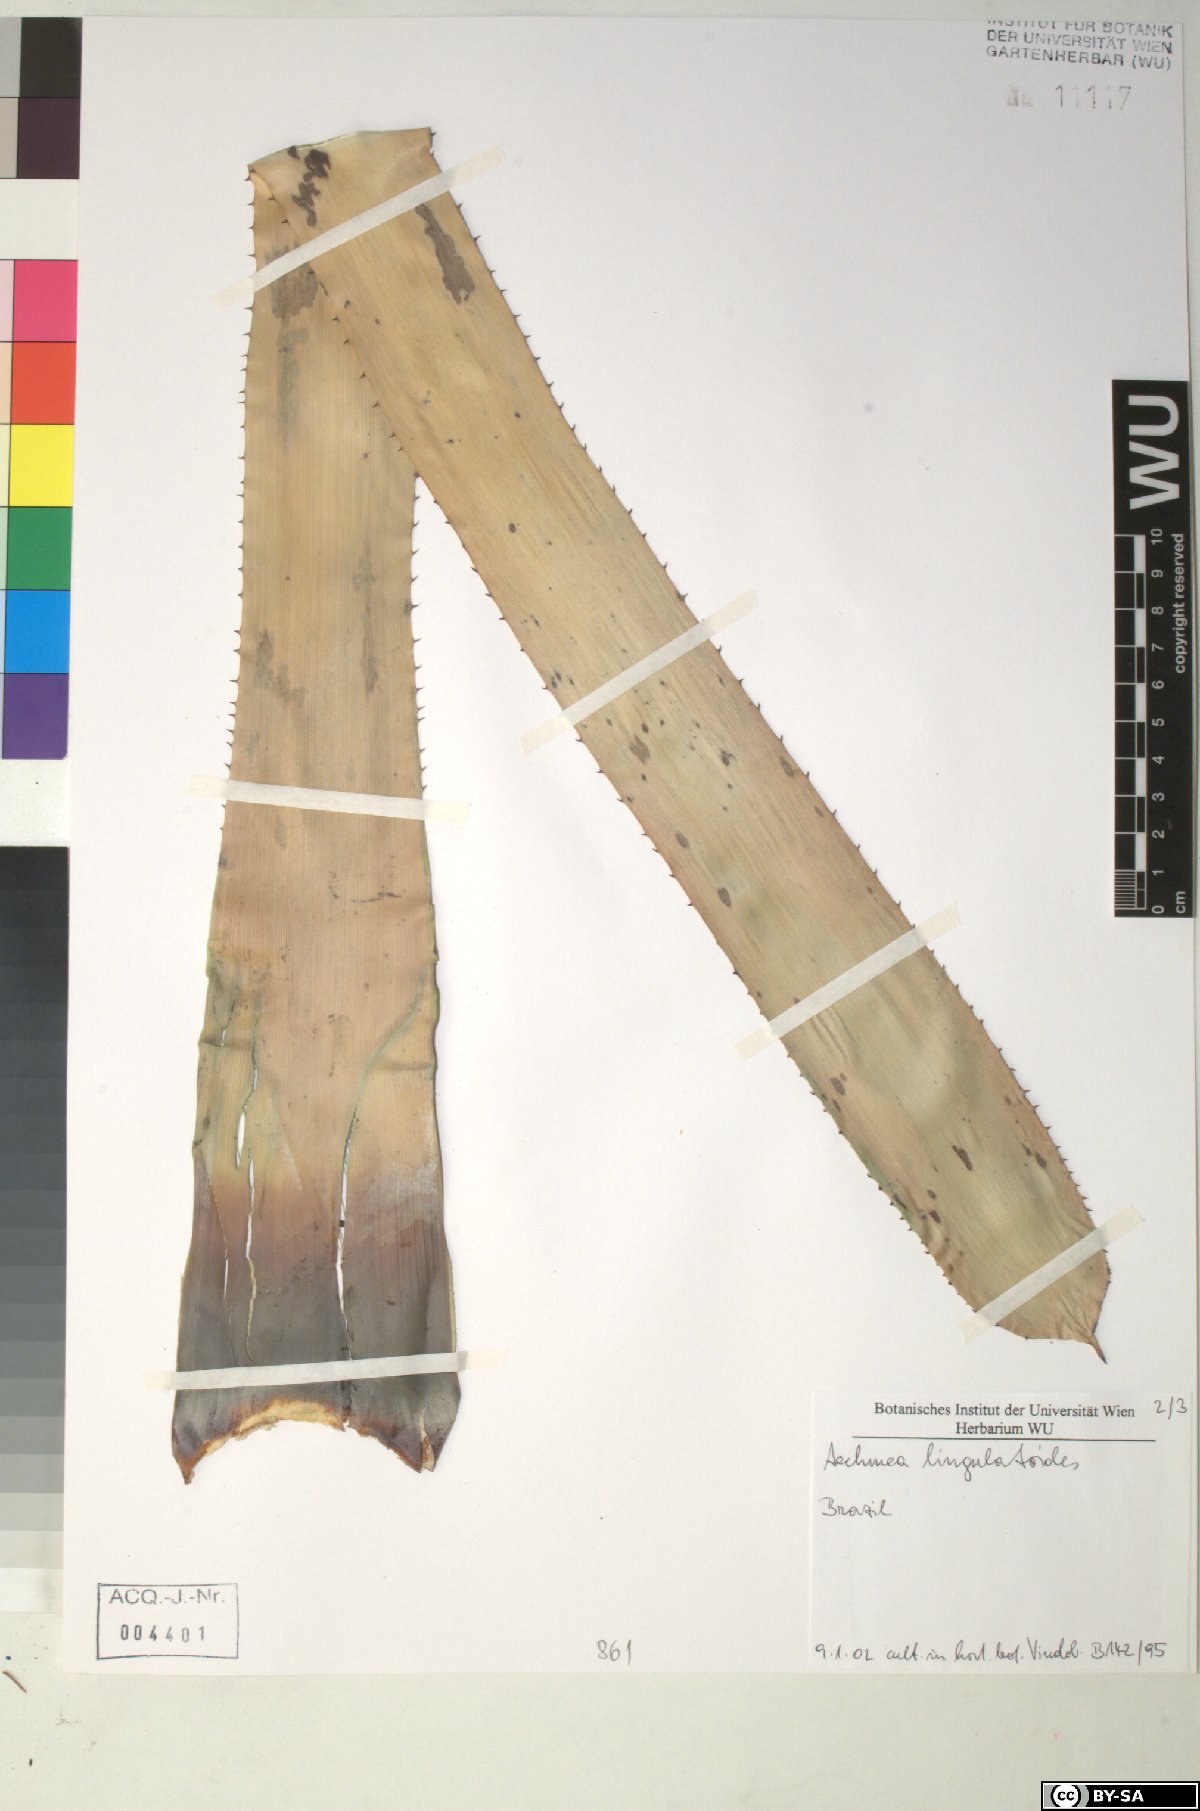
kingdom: Plantae
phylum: Tracheophyta
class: Liliopsida
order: Poales
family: Bromeliaceae
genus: Wittmackia
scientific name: Wittmackia lingulatoides
